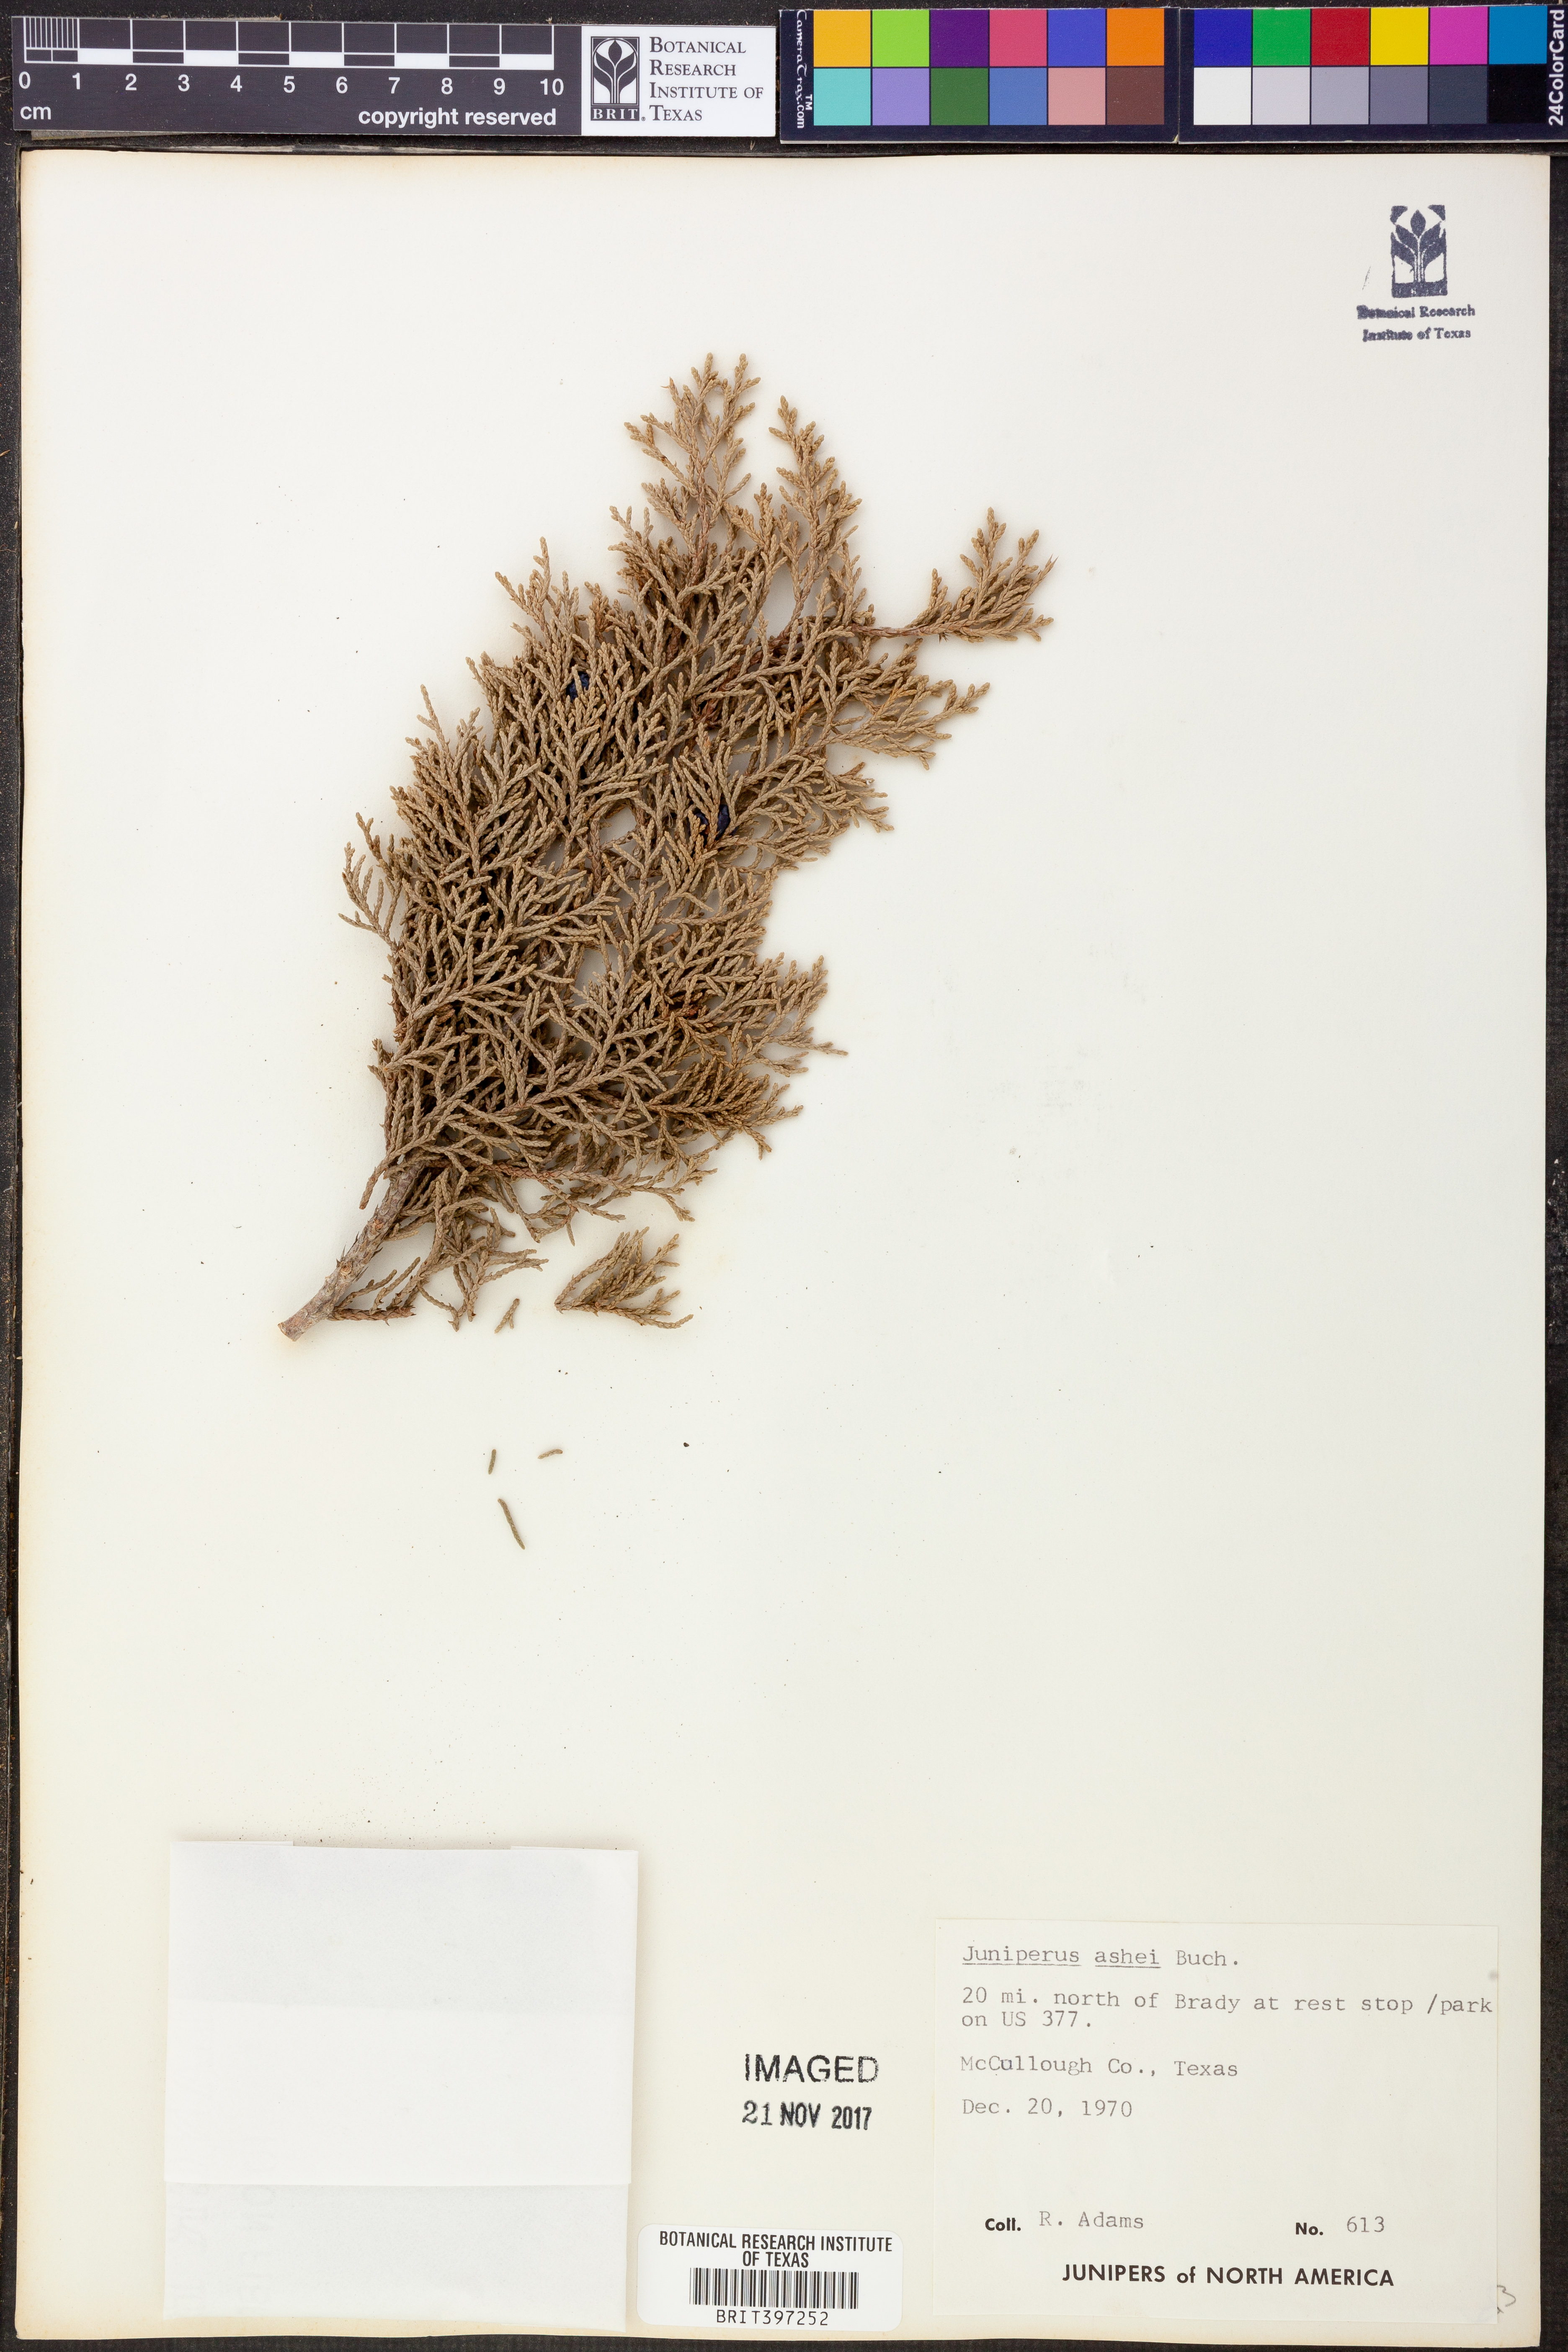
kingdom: Plantae
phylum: Tracheophyta
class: Pinopsida
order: Pinales
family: Cupressaceae
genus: Juniperus
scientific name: Juniperus ashei
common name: Mexican juniper
